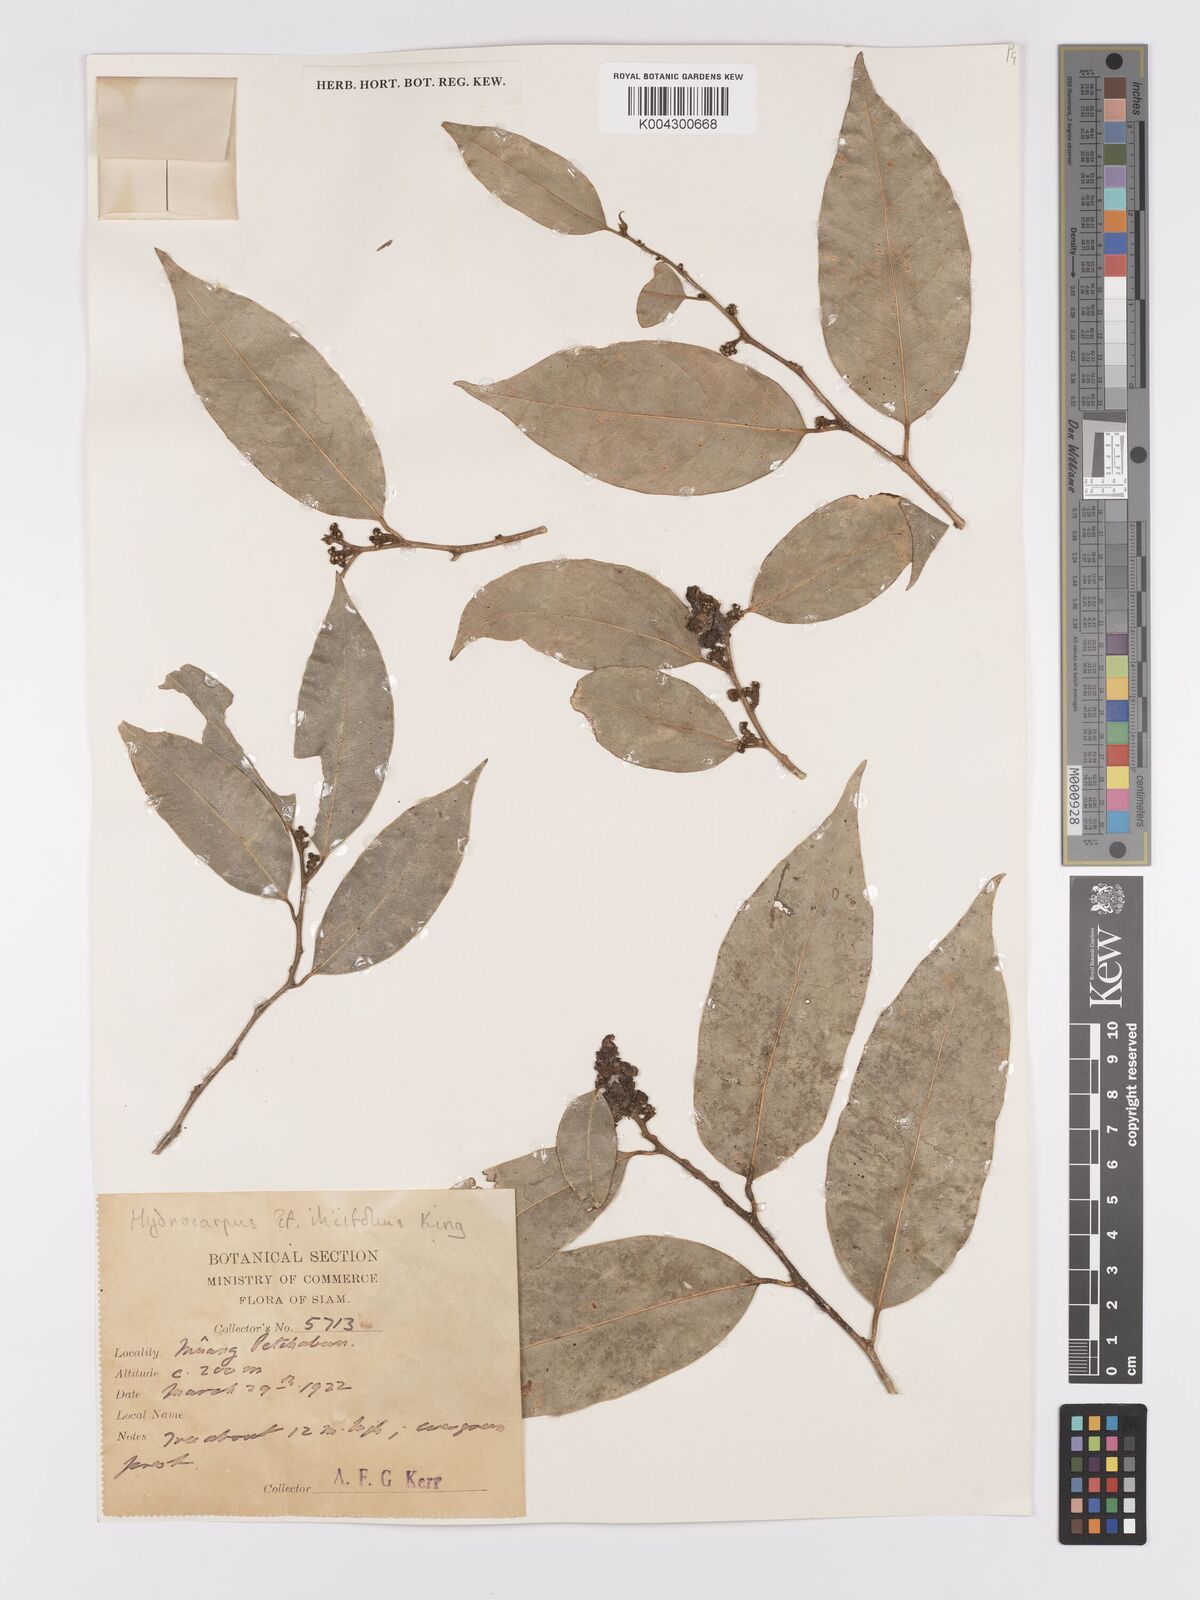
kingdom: Plantae
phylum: Tracheophyta
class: Magnoliopsida
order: Malpighiales
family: Achariaceae
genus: Hydnocarpus
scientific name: Hydnocarpus ilicifolius
